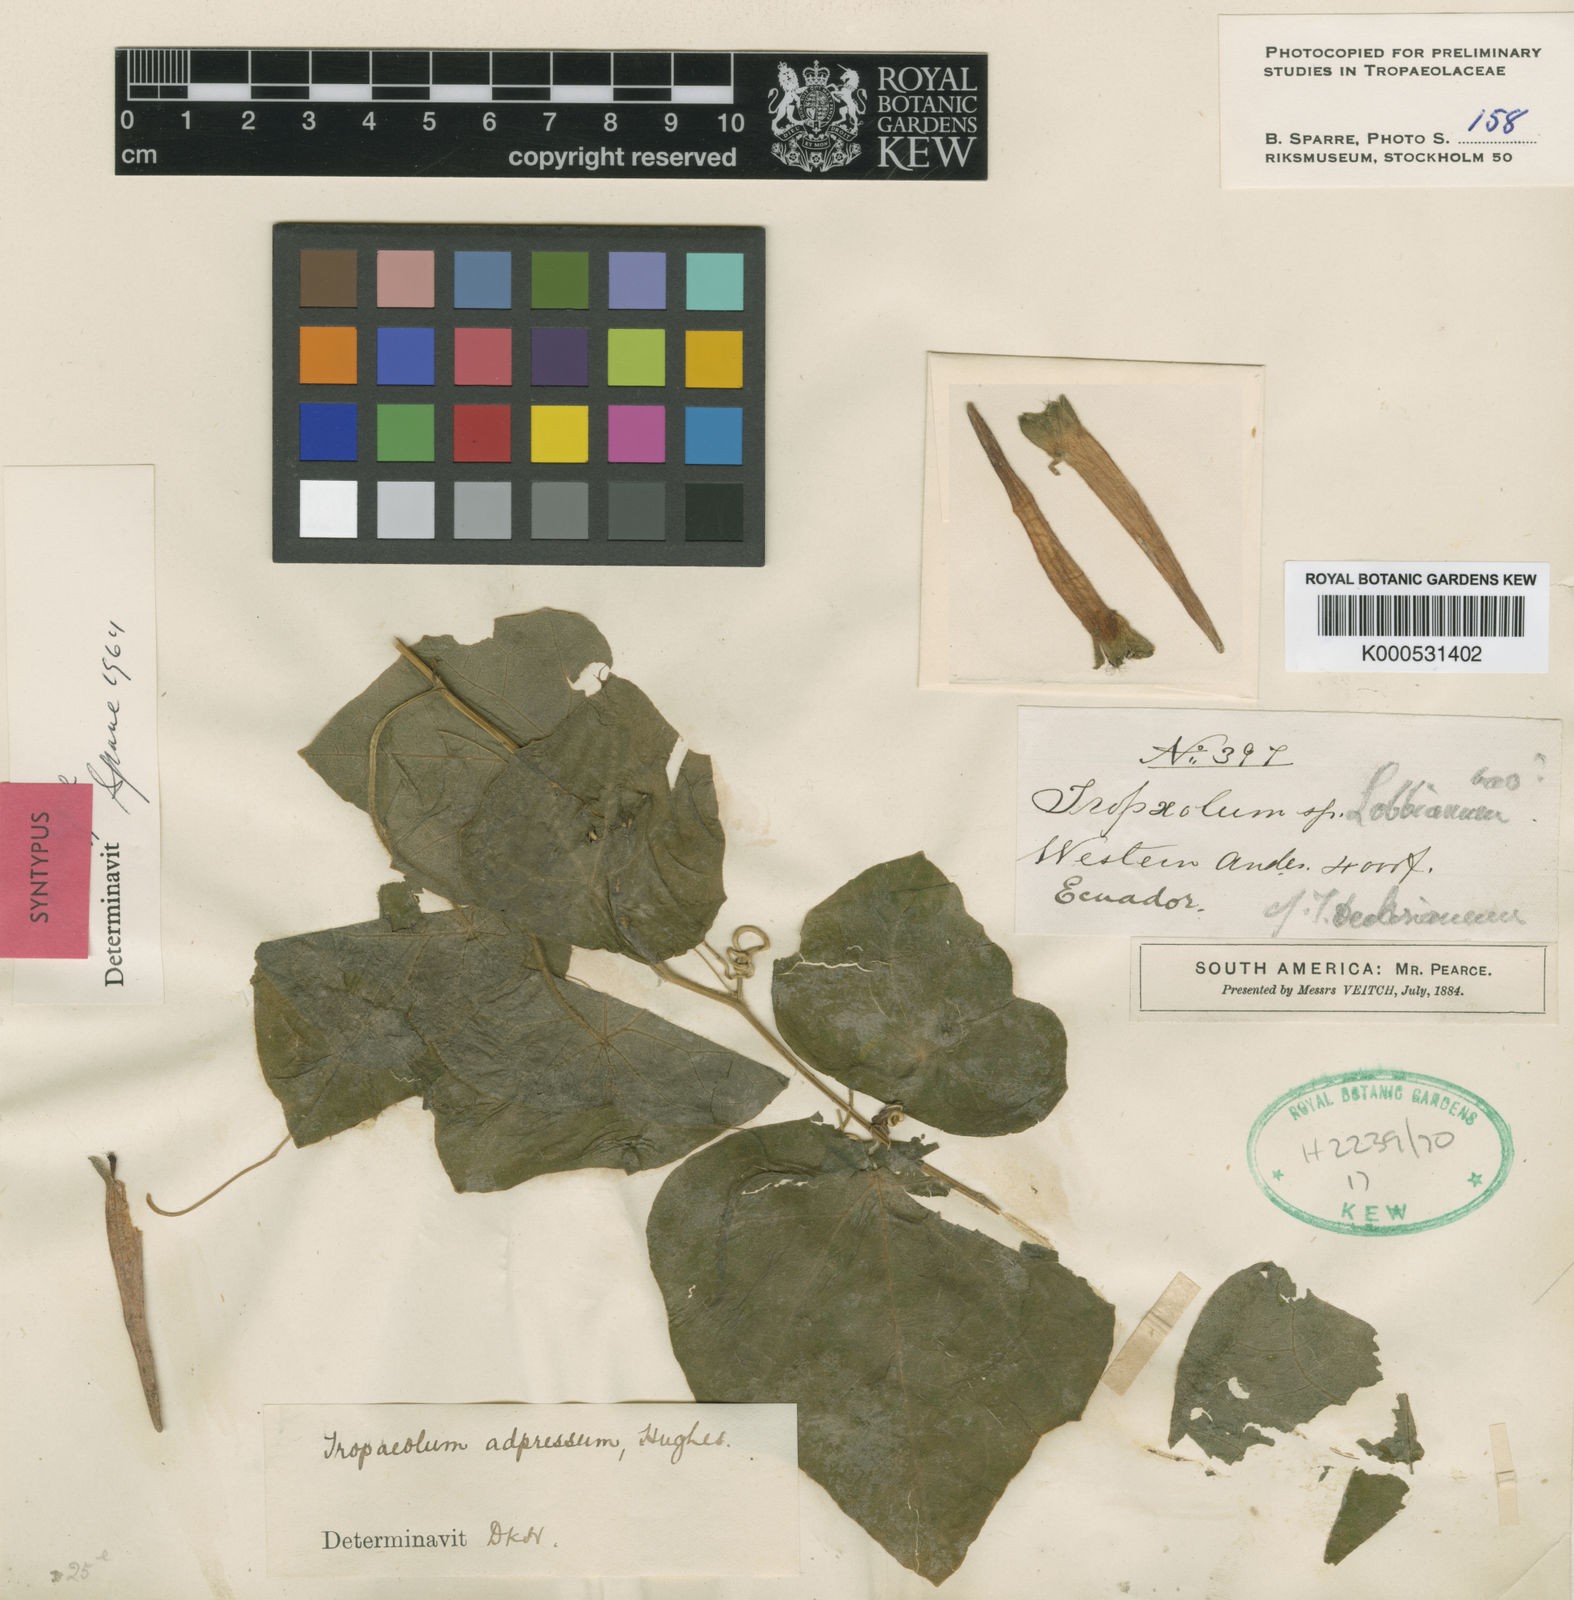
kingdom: Plantae
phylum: Tracheophyta
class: Magnoliopsida
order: Brassicales
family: Tropaeolaceae
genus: Tropaeolum
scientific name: Tropaeolum adpressum
